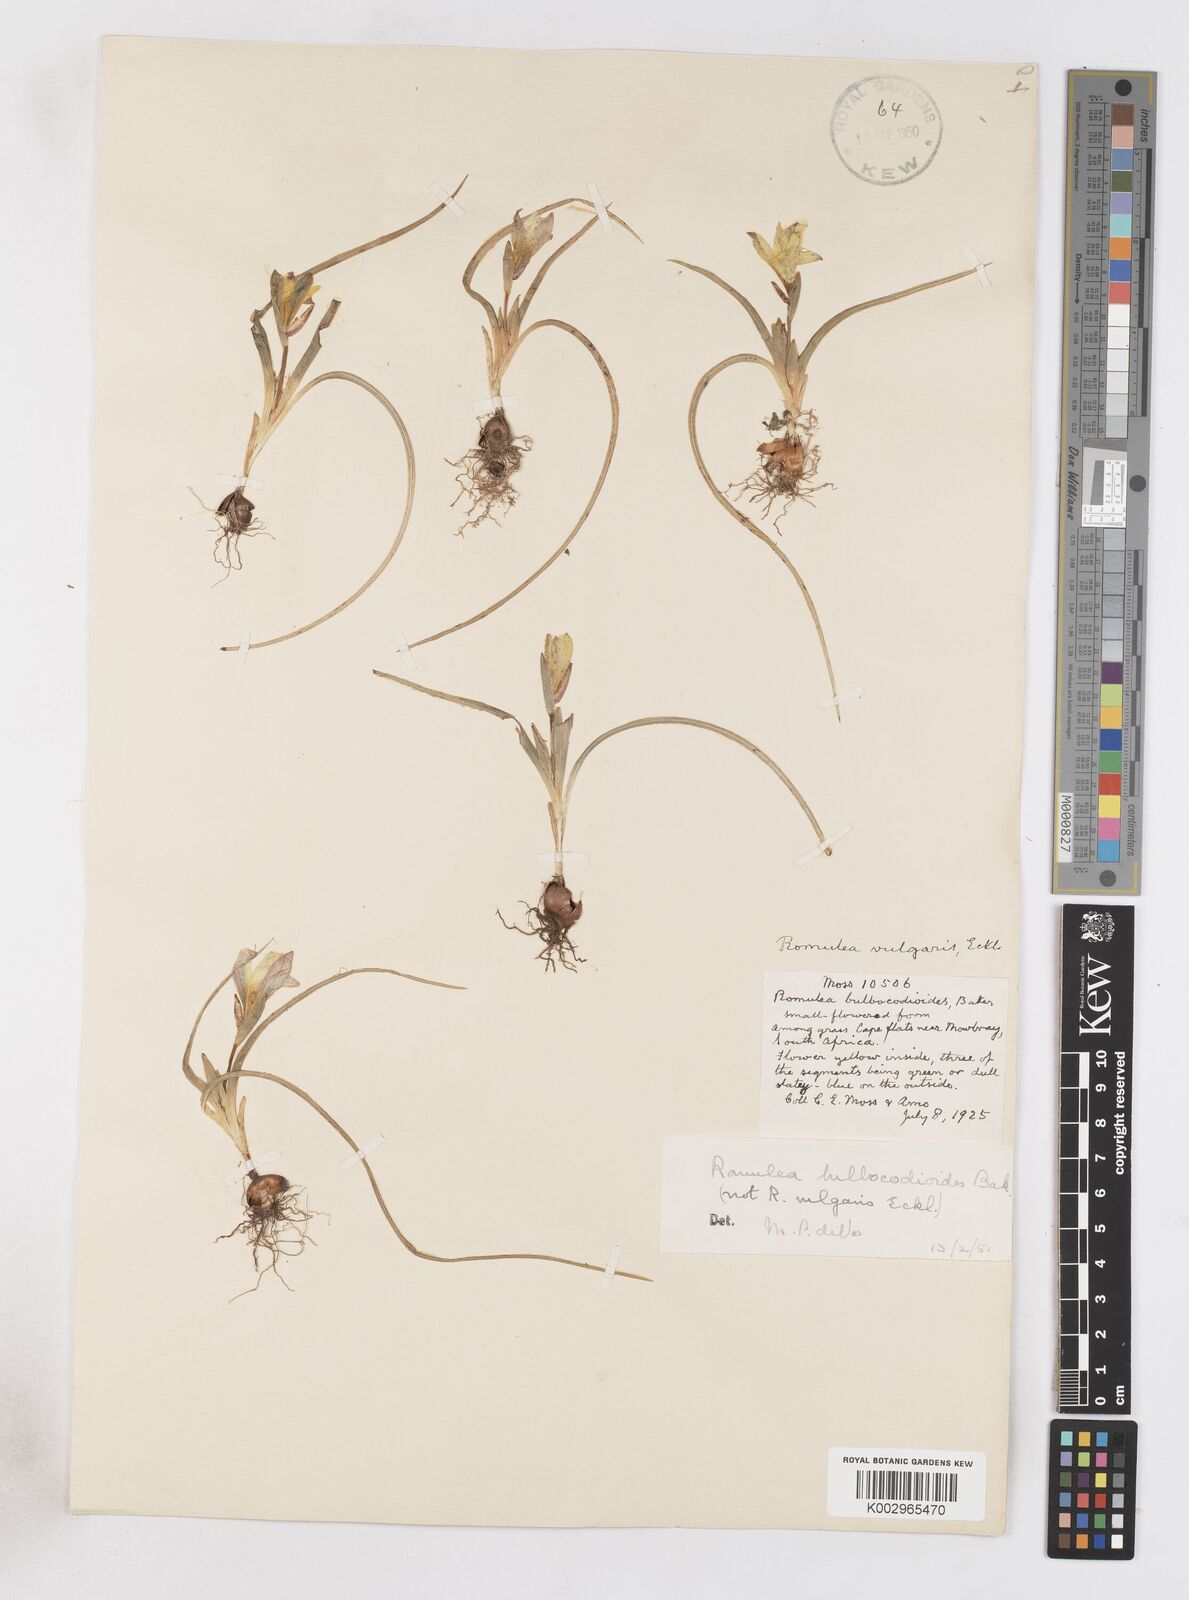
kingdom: Plantae
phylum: Tracheophyta
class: Liliopsida
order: Asparagales
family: Iridaceae
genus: Romulea
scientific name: Romulea flava
